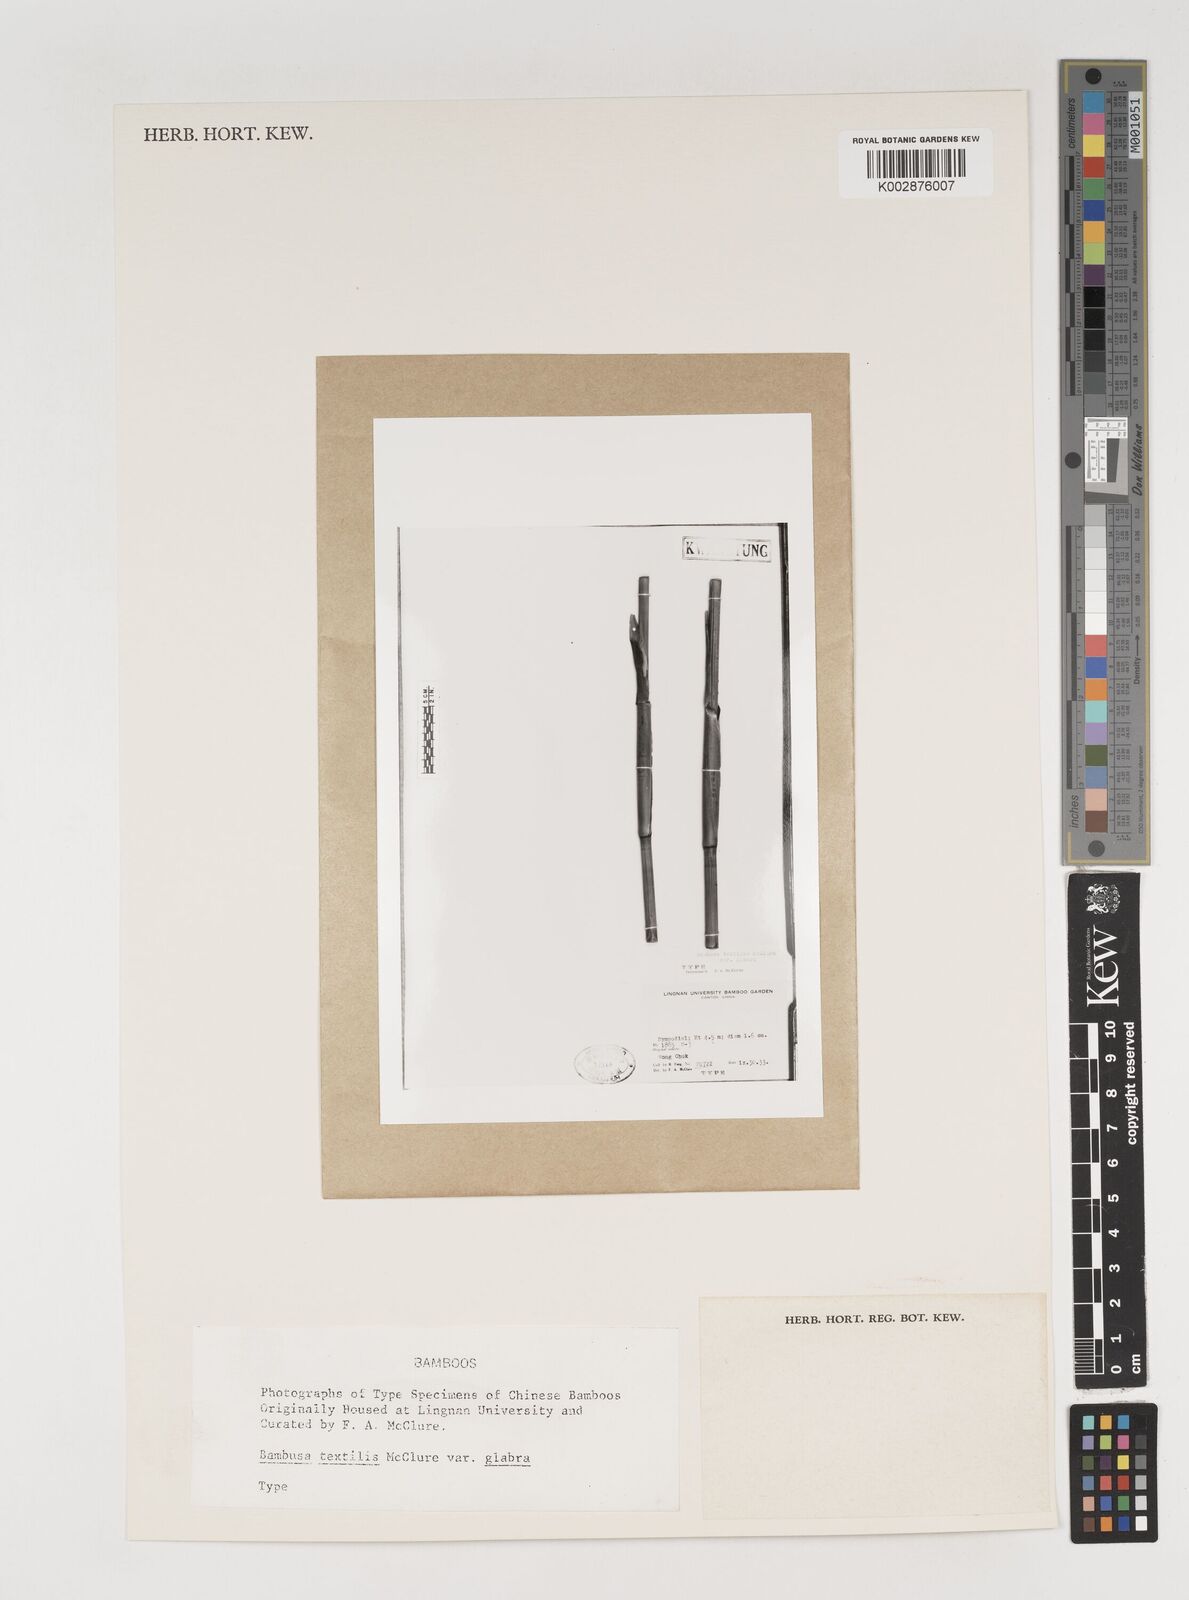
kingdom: Plantae
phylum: Tracheophyta
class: Liliopsida
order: Poales
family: Poaceae
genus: Bambusa
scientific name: Bambusa albolineata
